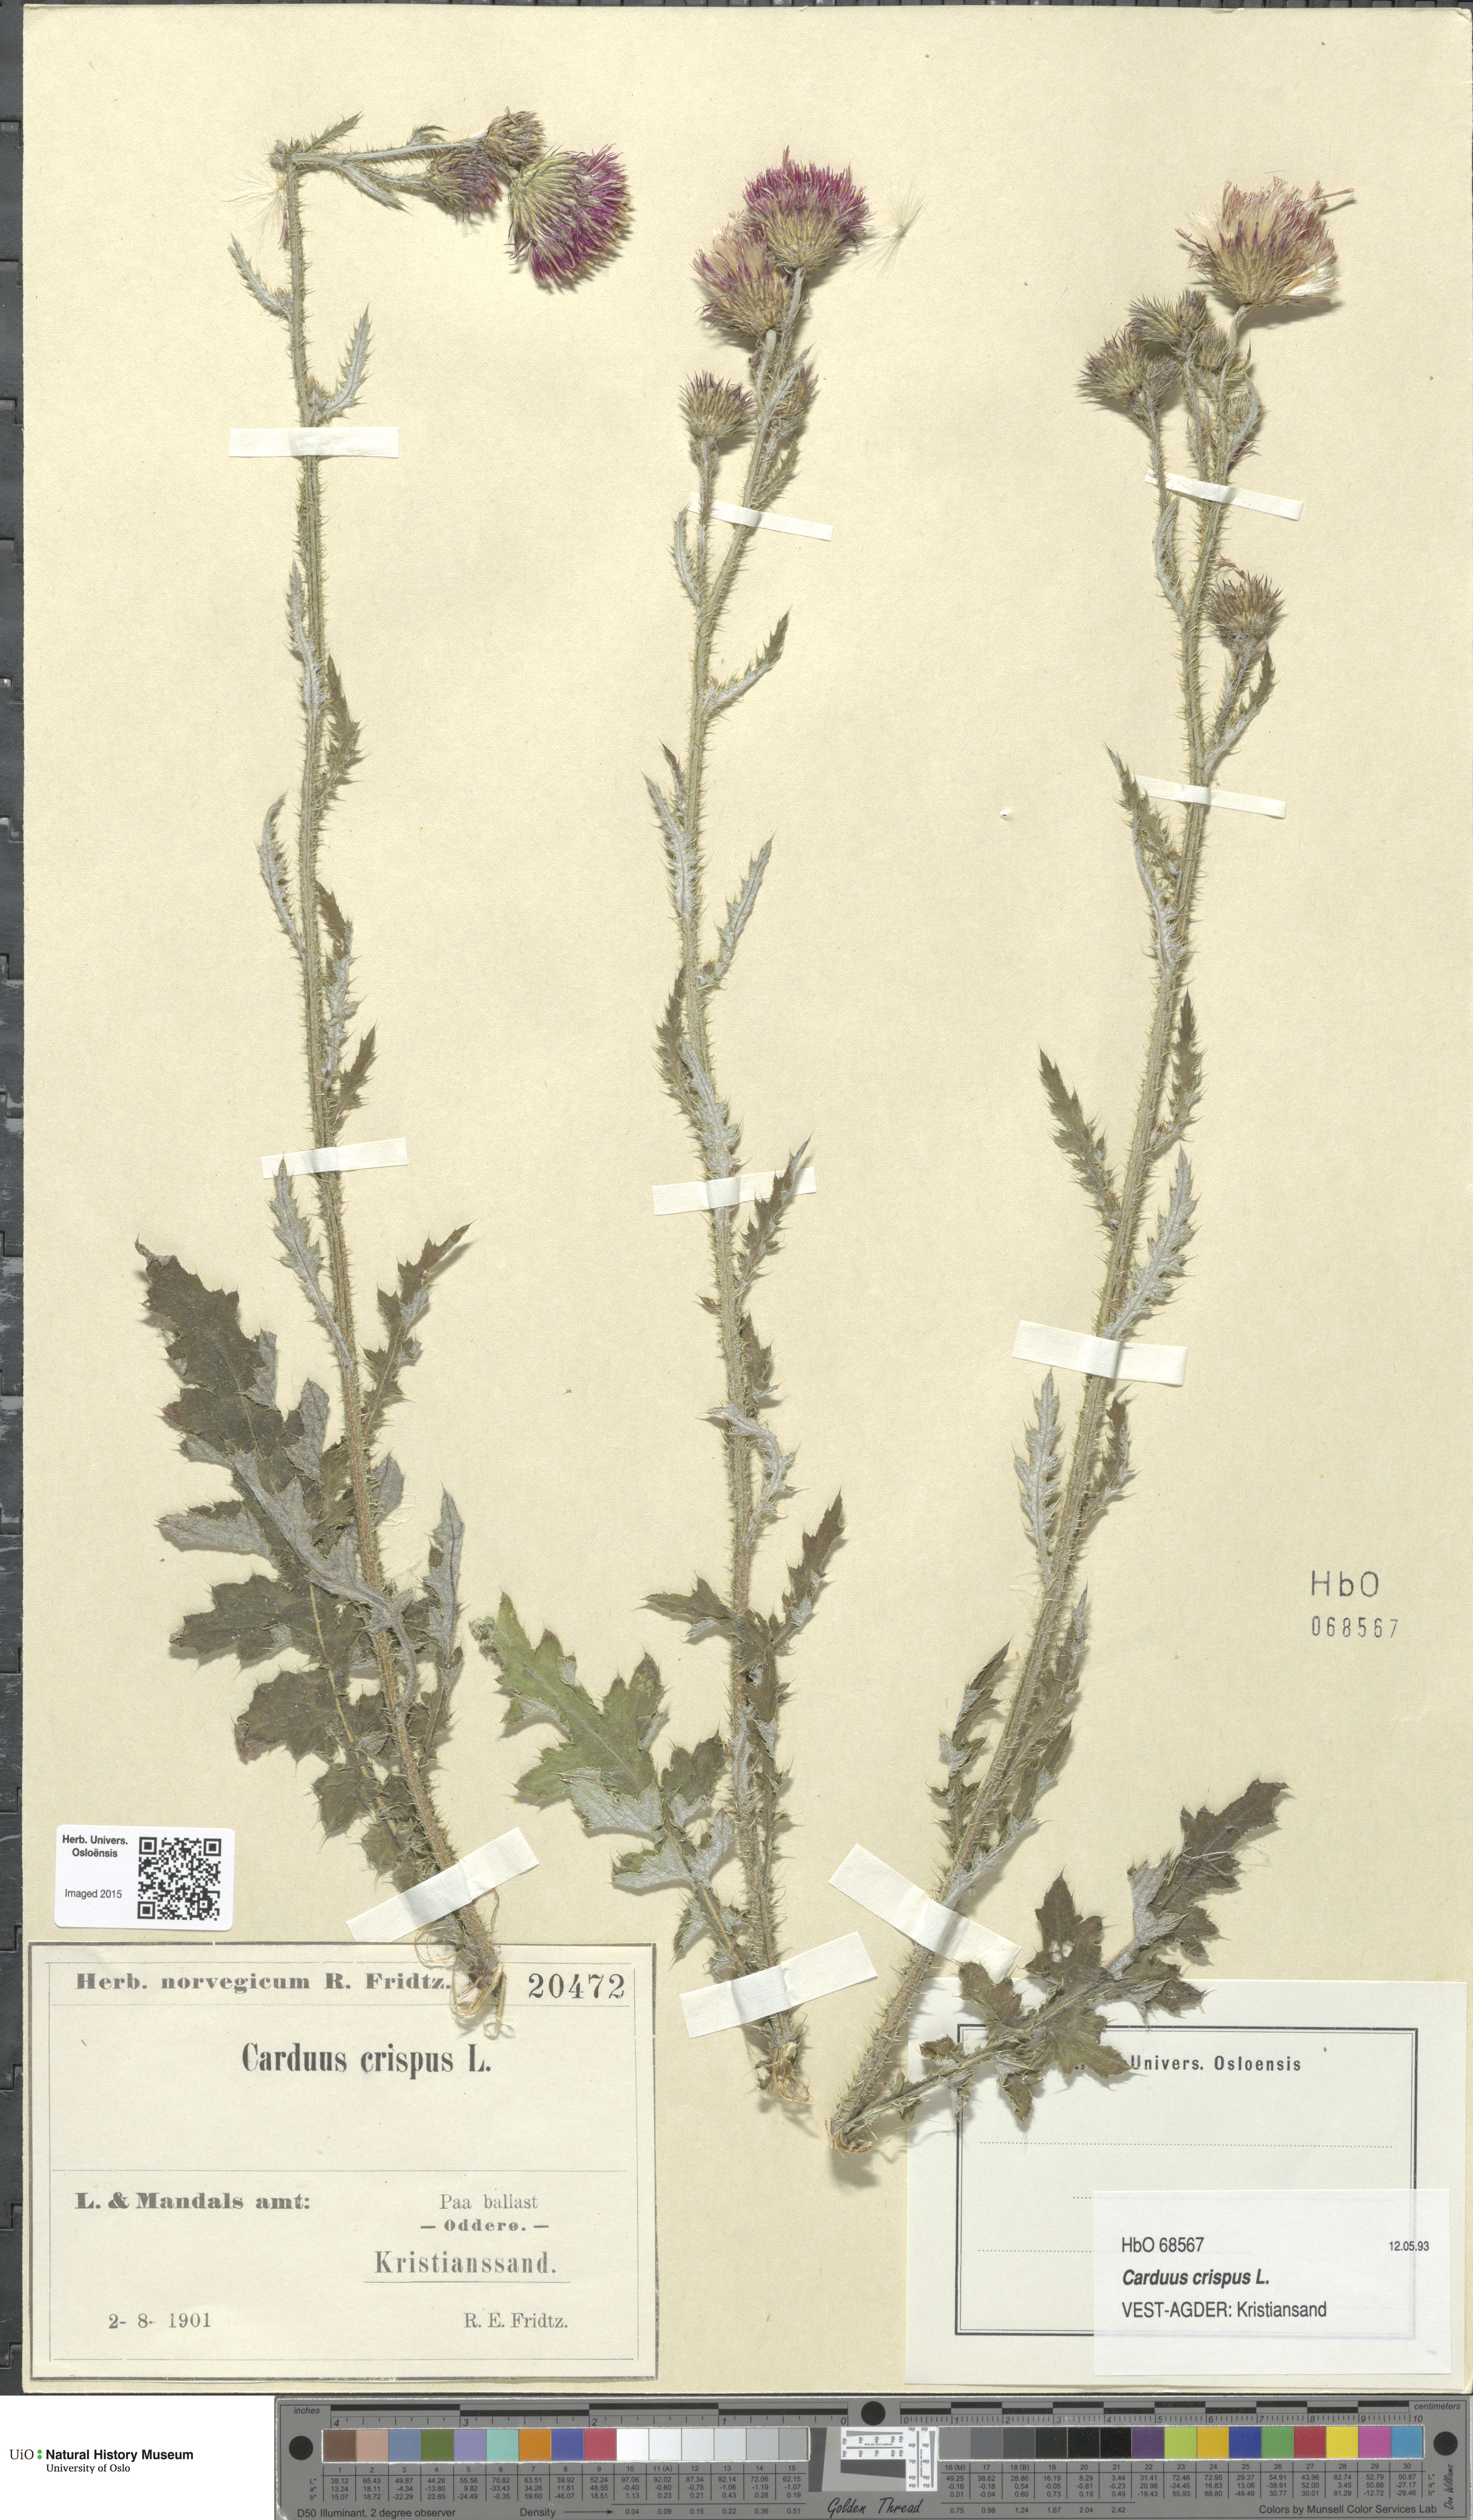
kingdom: Plantae
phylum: Tracheophyta
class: Magnoliopsida
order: Asterales
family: Asteraceae
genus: Carduus
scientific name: Carduus crispus
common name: Welted thistle
